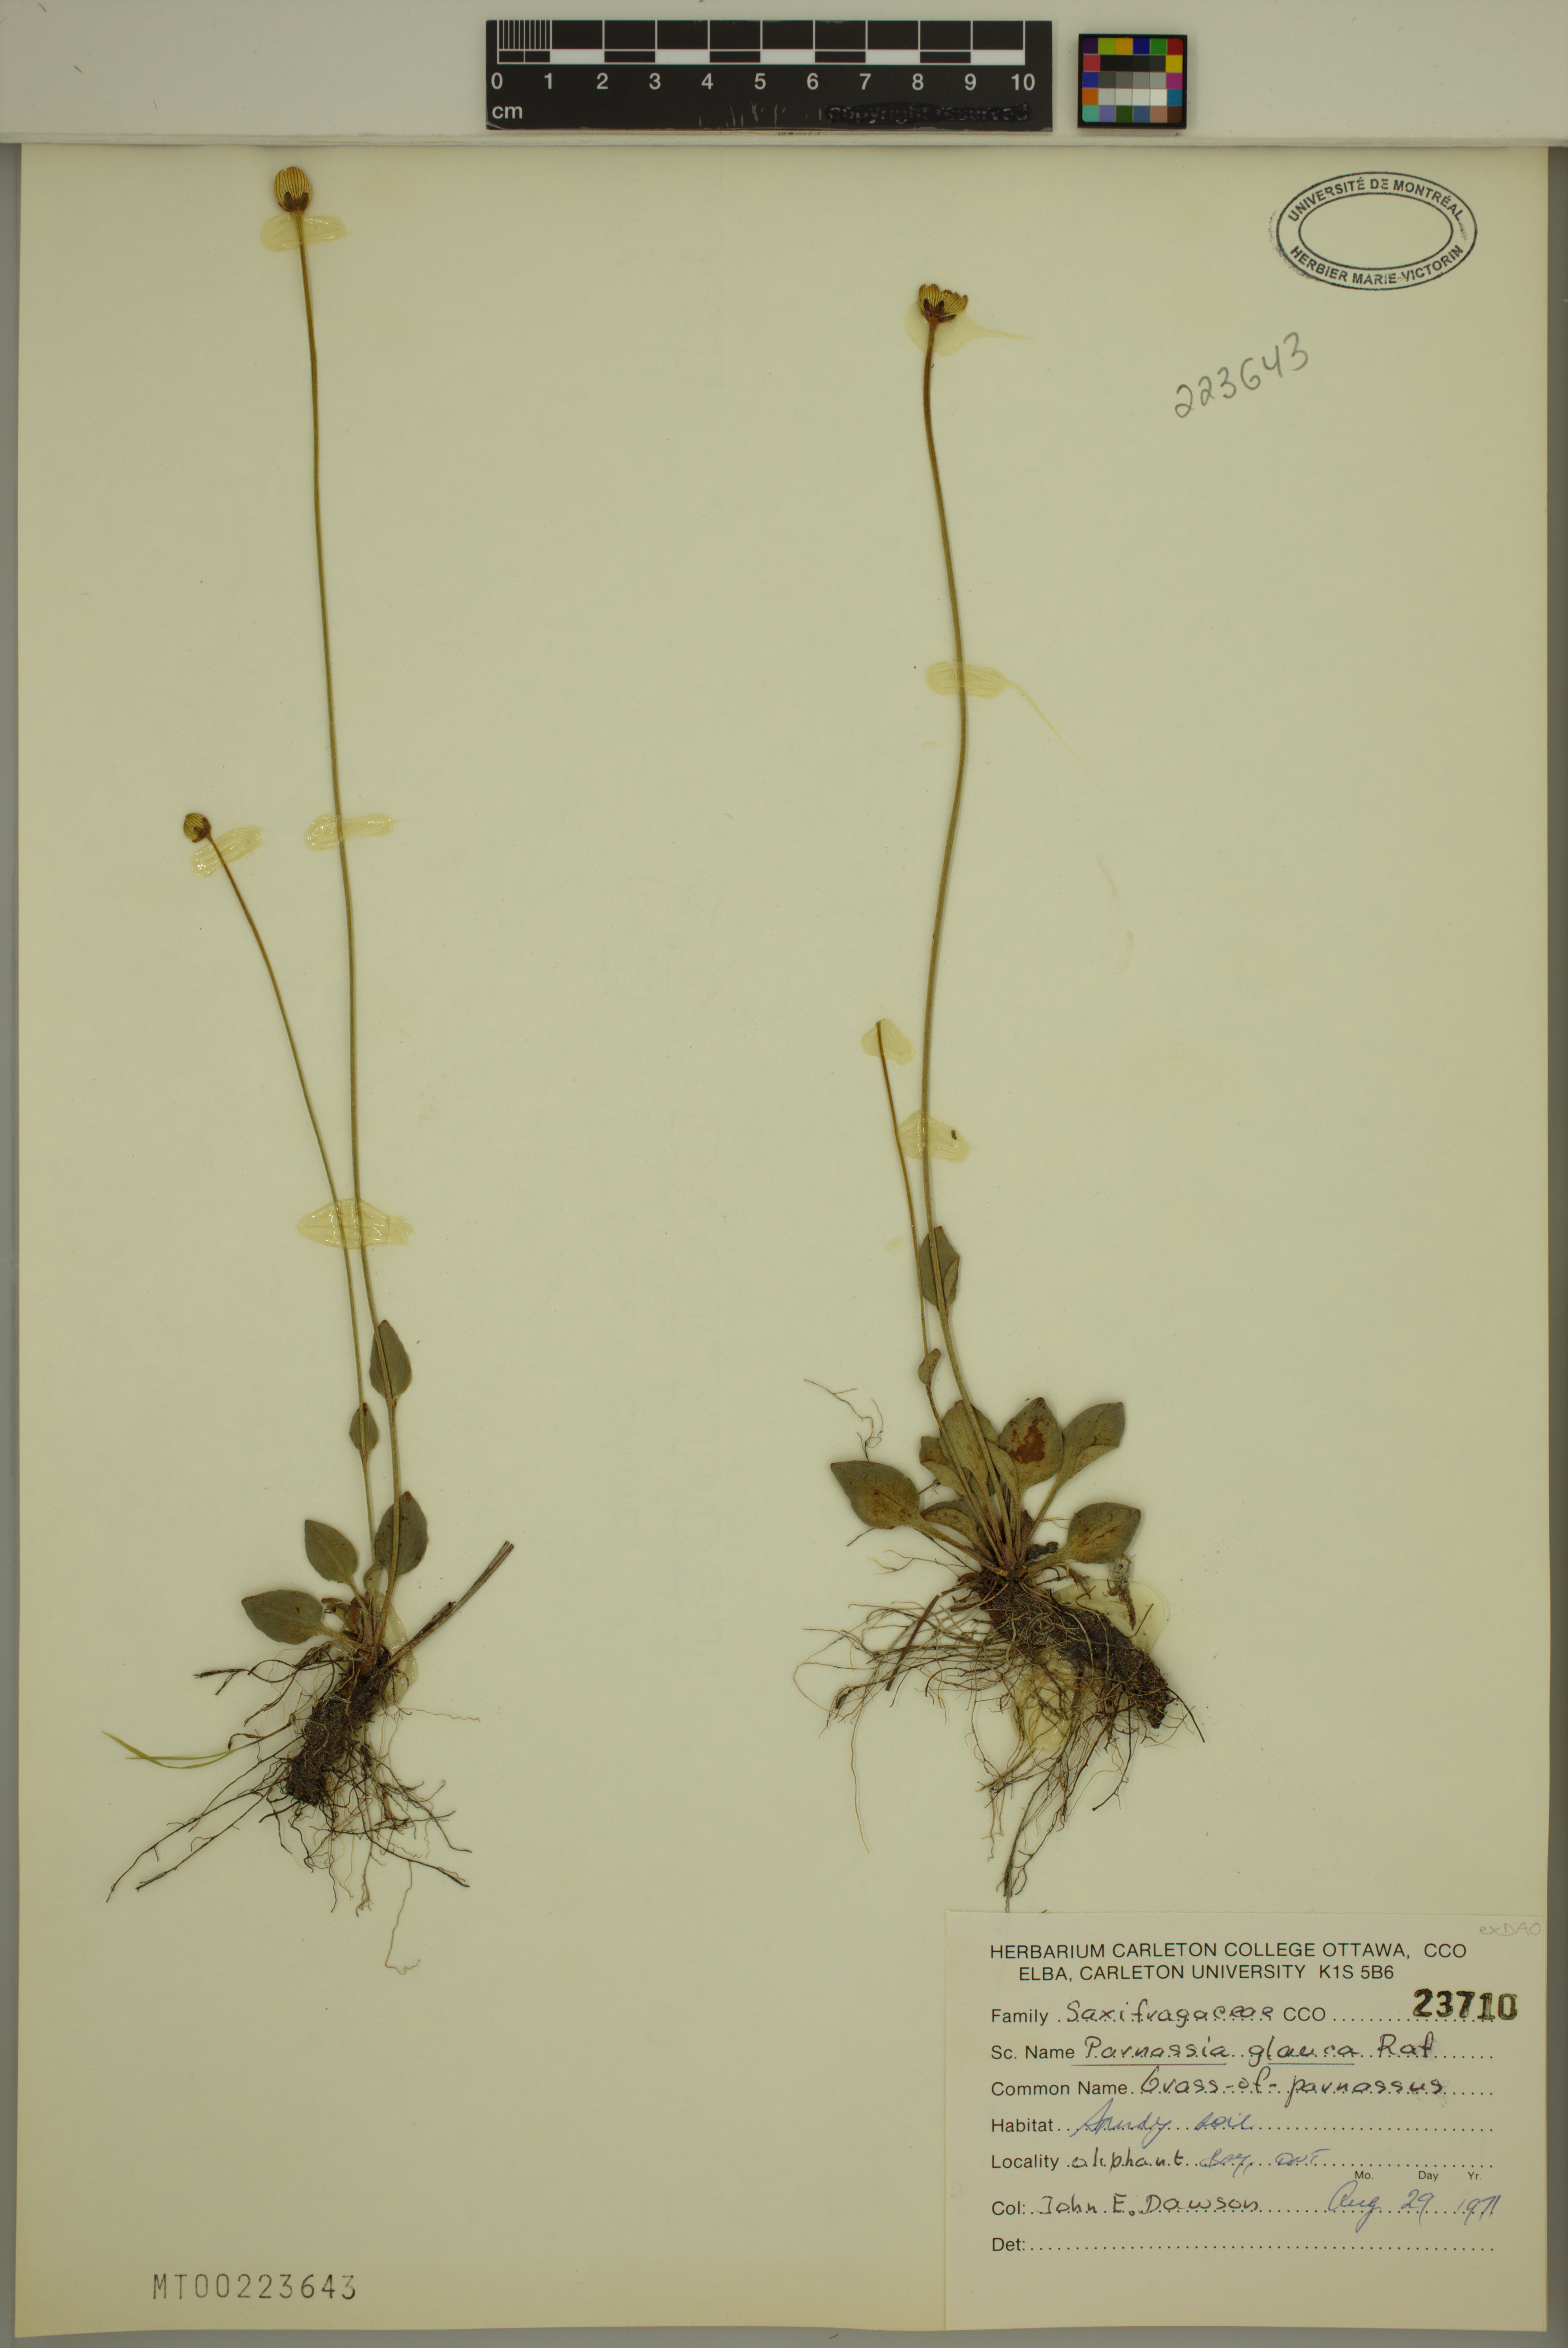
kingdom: Plantae
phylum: Tracheophyta
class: Magnoliopsida
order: Celastrales
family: Parnassiaceae
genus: Parnassia
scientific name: Parnassia glauca
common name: American grass-of-parnassus
